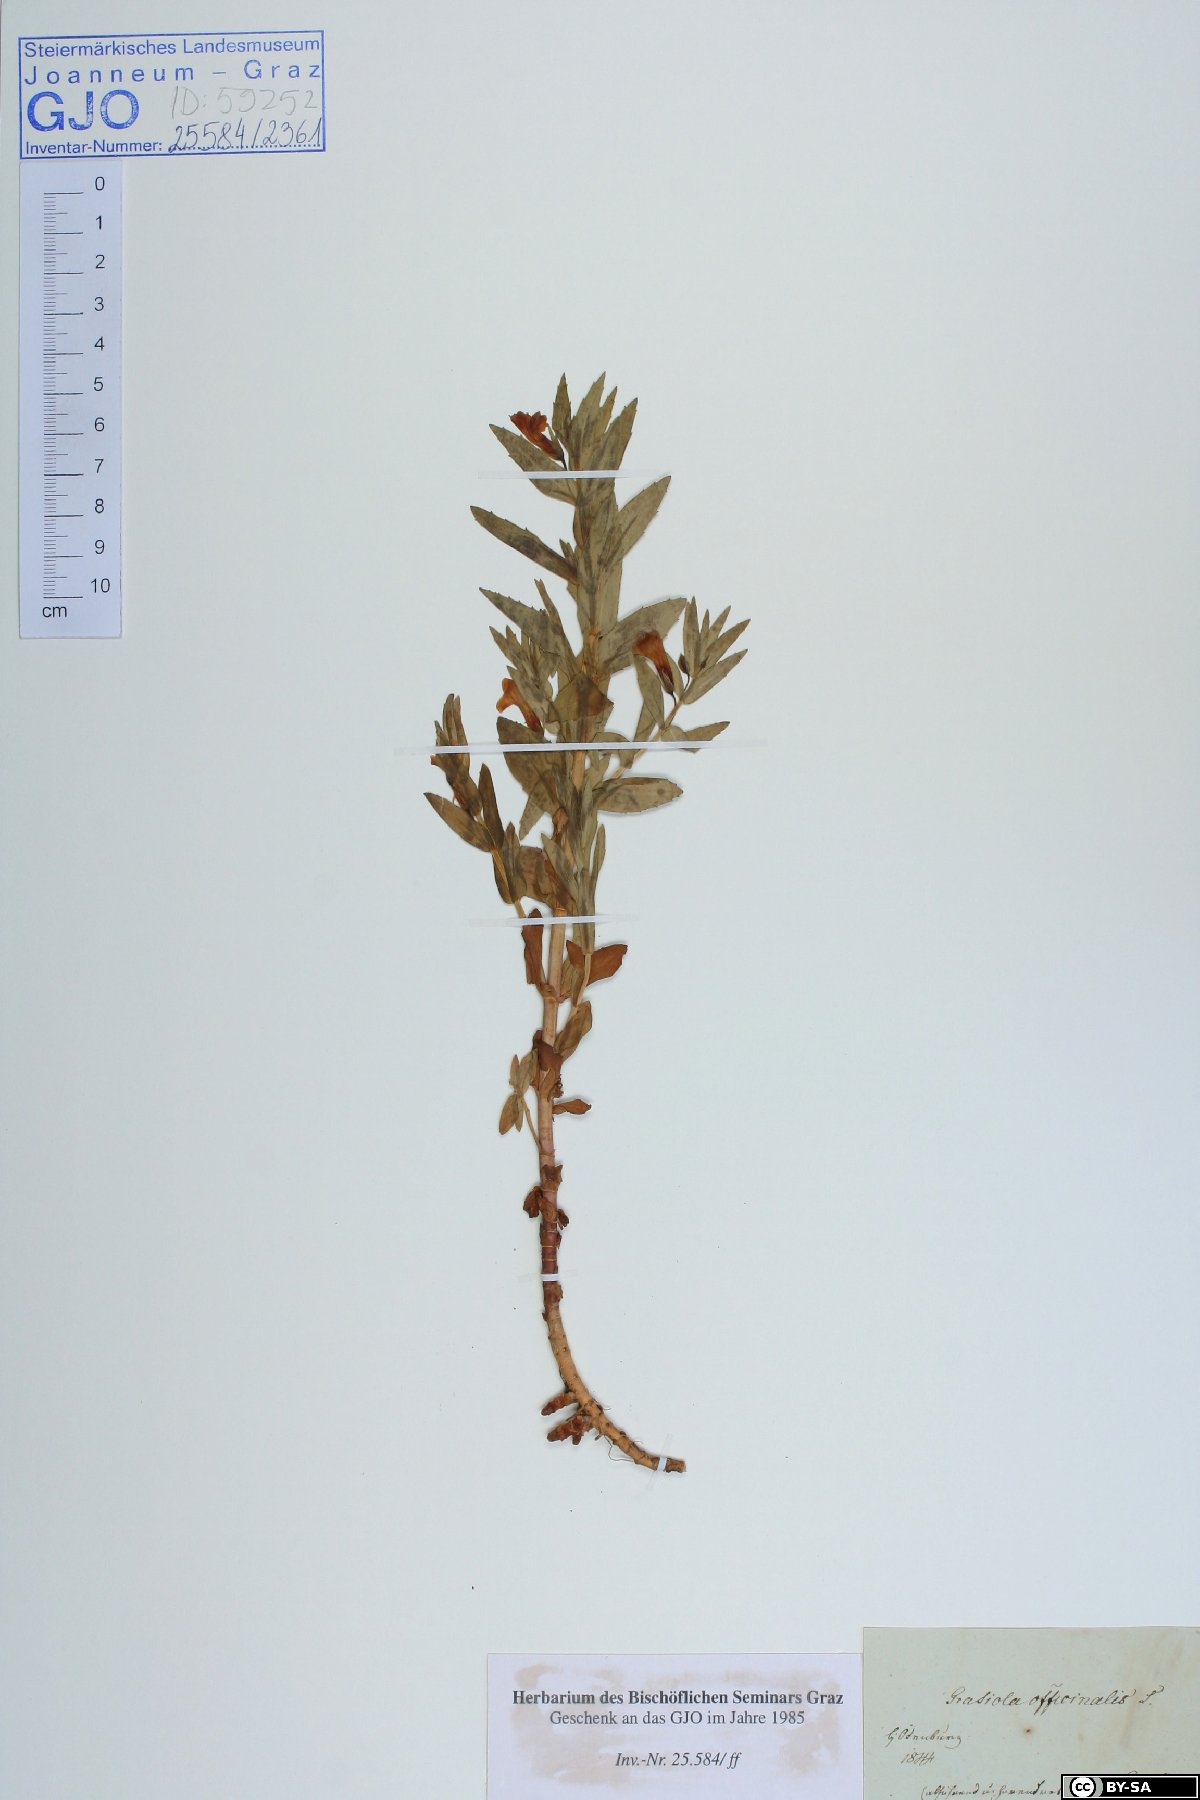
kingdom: Plantae
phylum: Tracheophyta
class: Magnoliopsida
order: Lamiales
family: Plantaginaceae
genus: Gratiola
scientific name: Gratiola officinalis
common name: Gratiola
